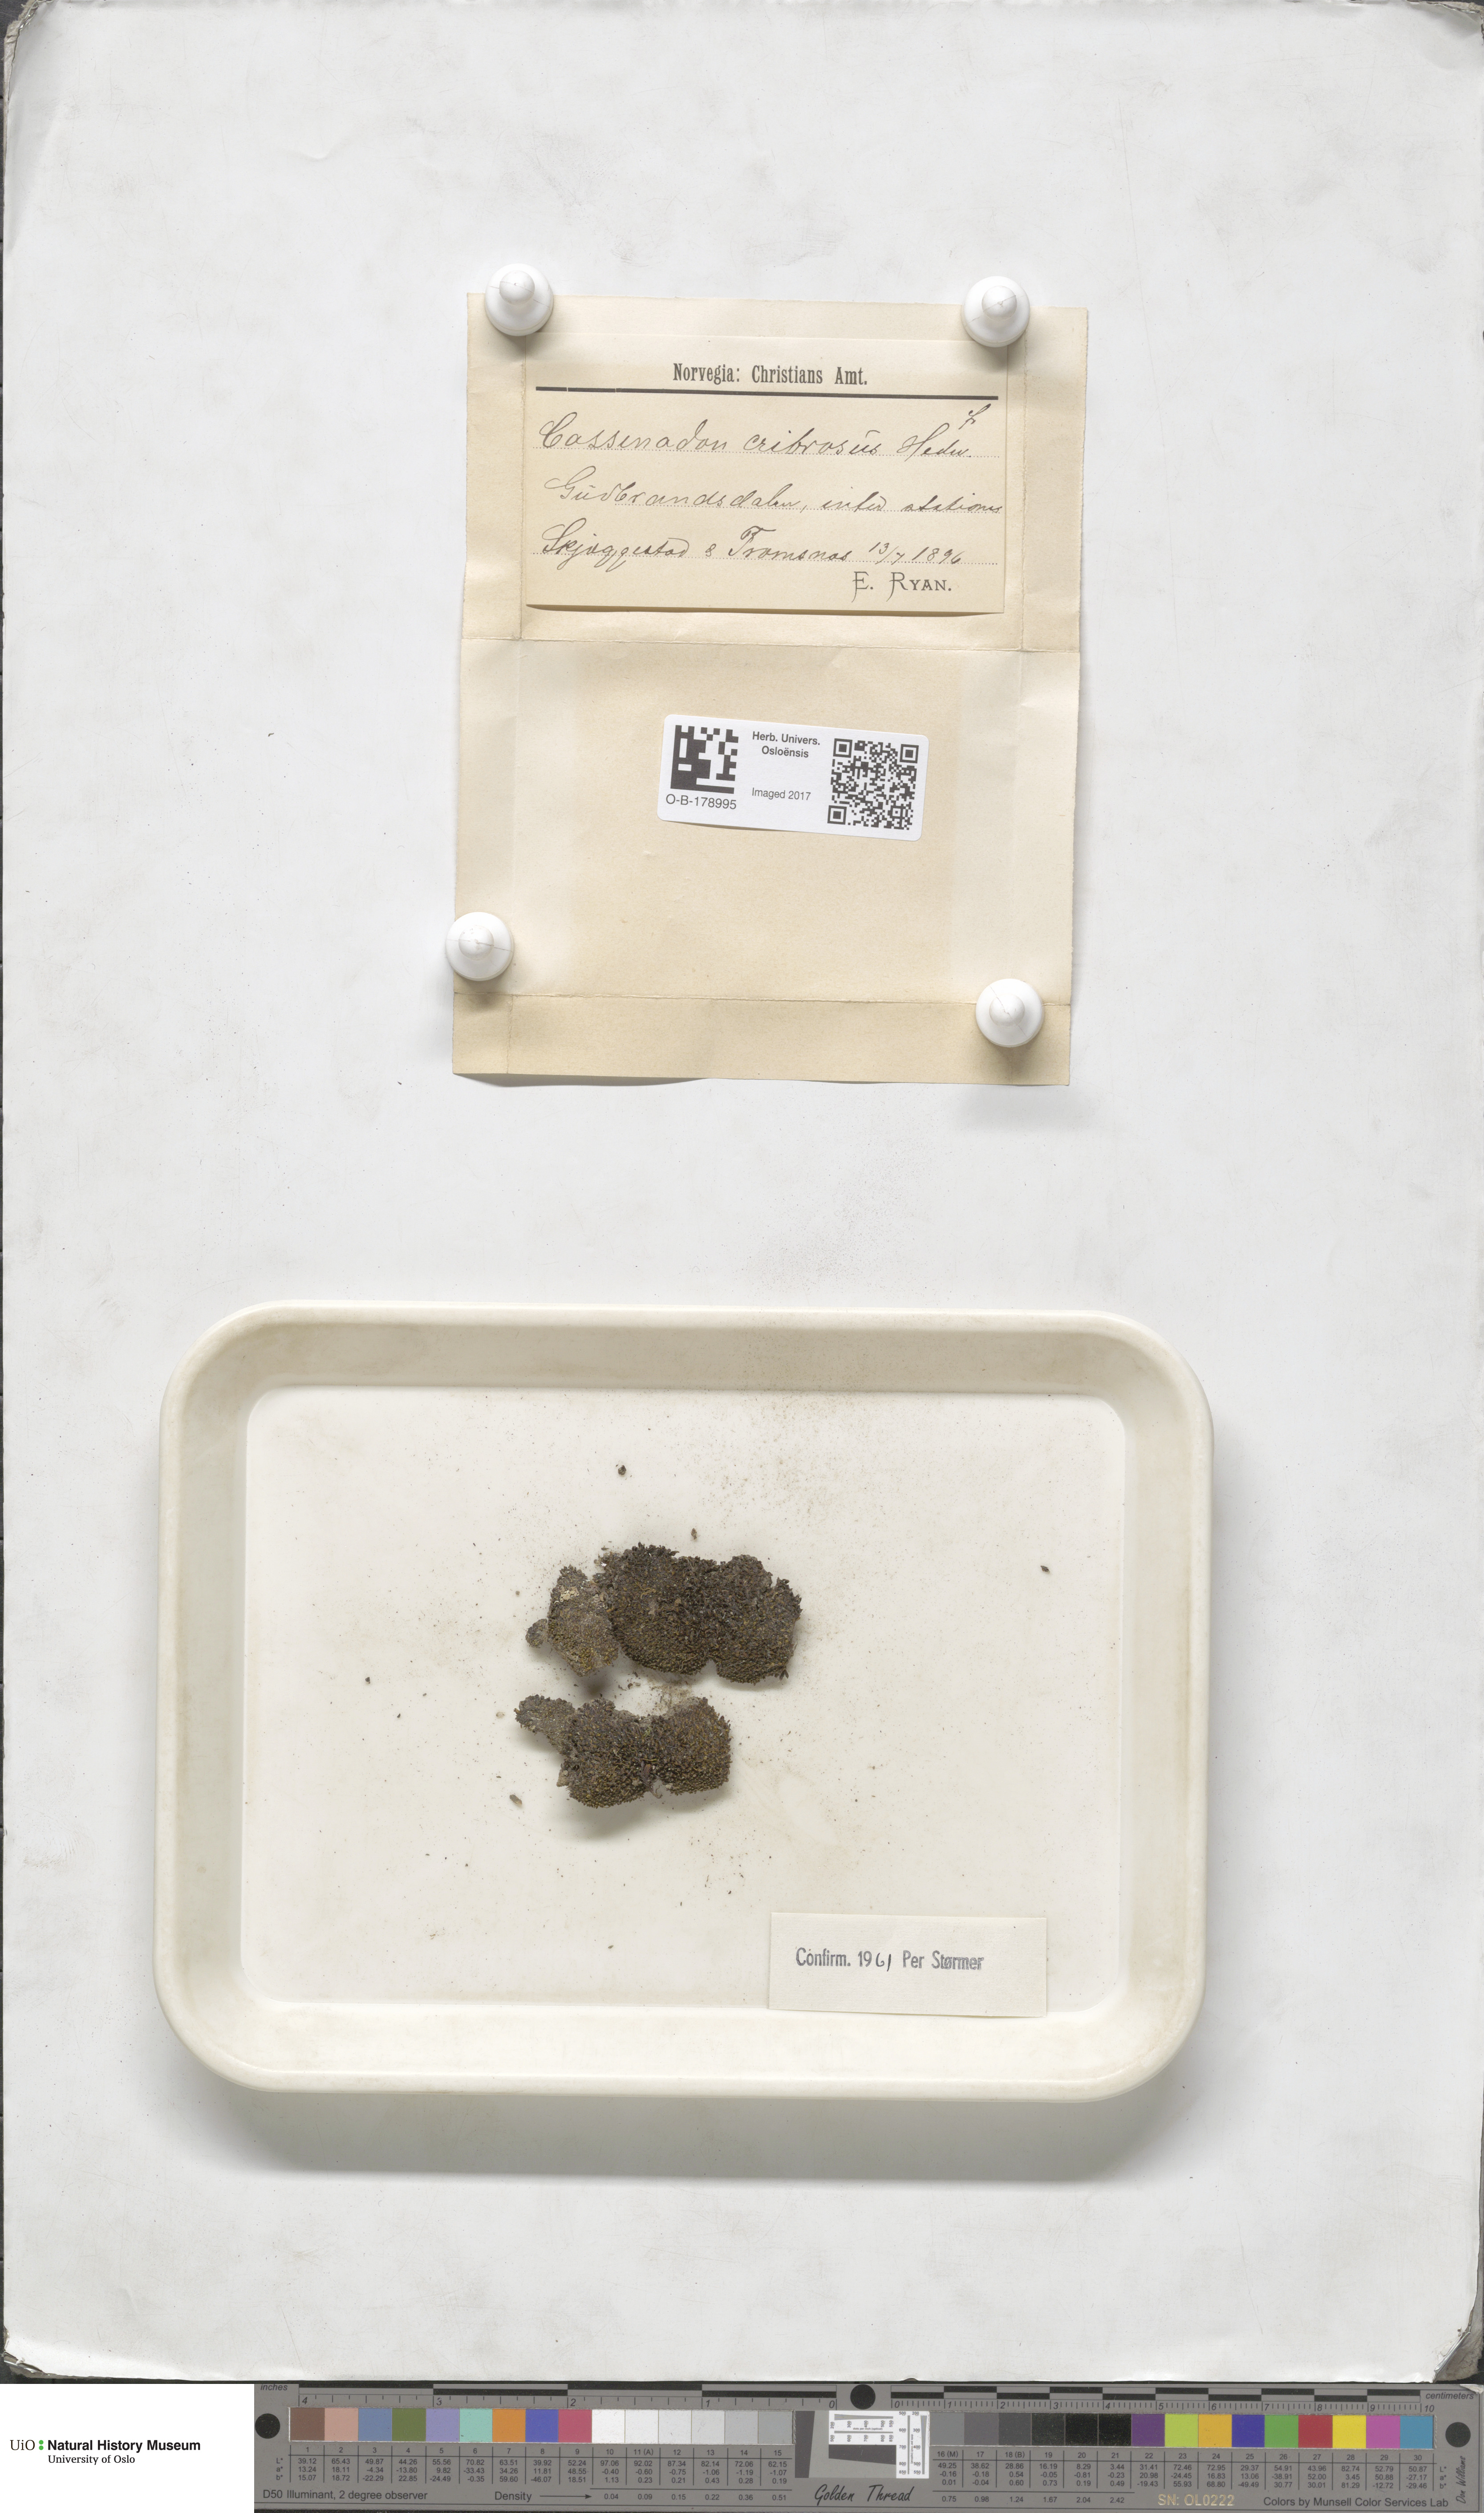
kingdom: Plantae
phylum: Bryophyta
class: Bryopsida
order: Bartramiales
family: Bartramiaceae
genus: Conostomum
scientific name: Conostomum tetragonum
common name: Helmet moss
